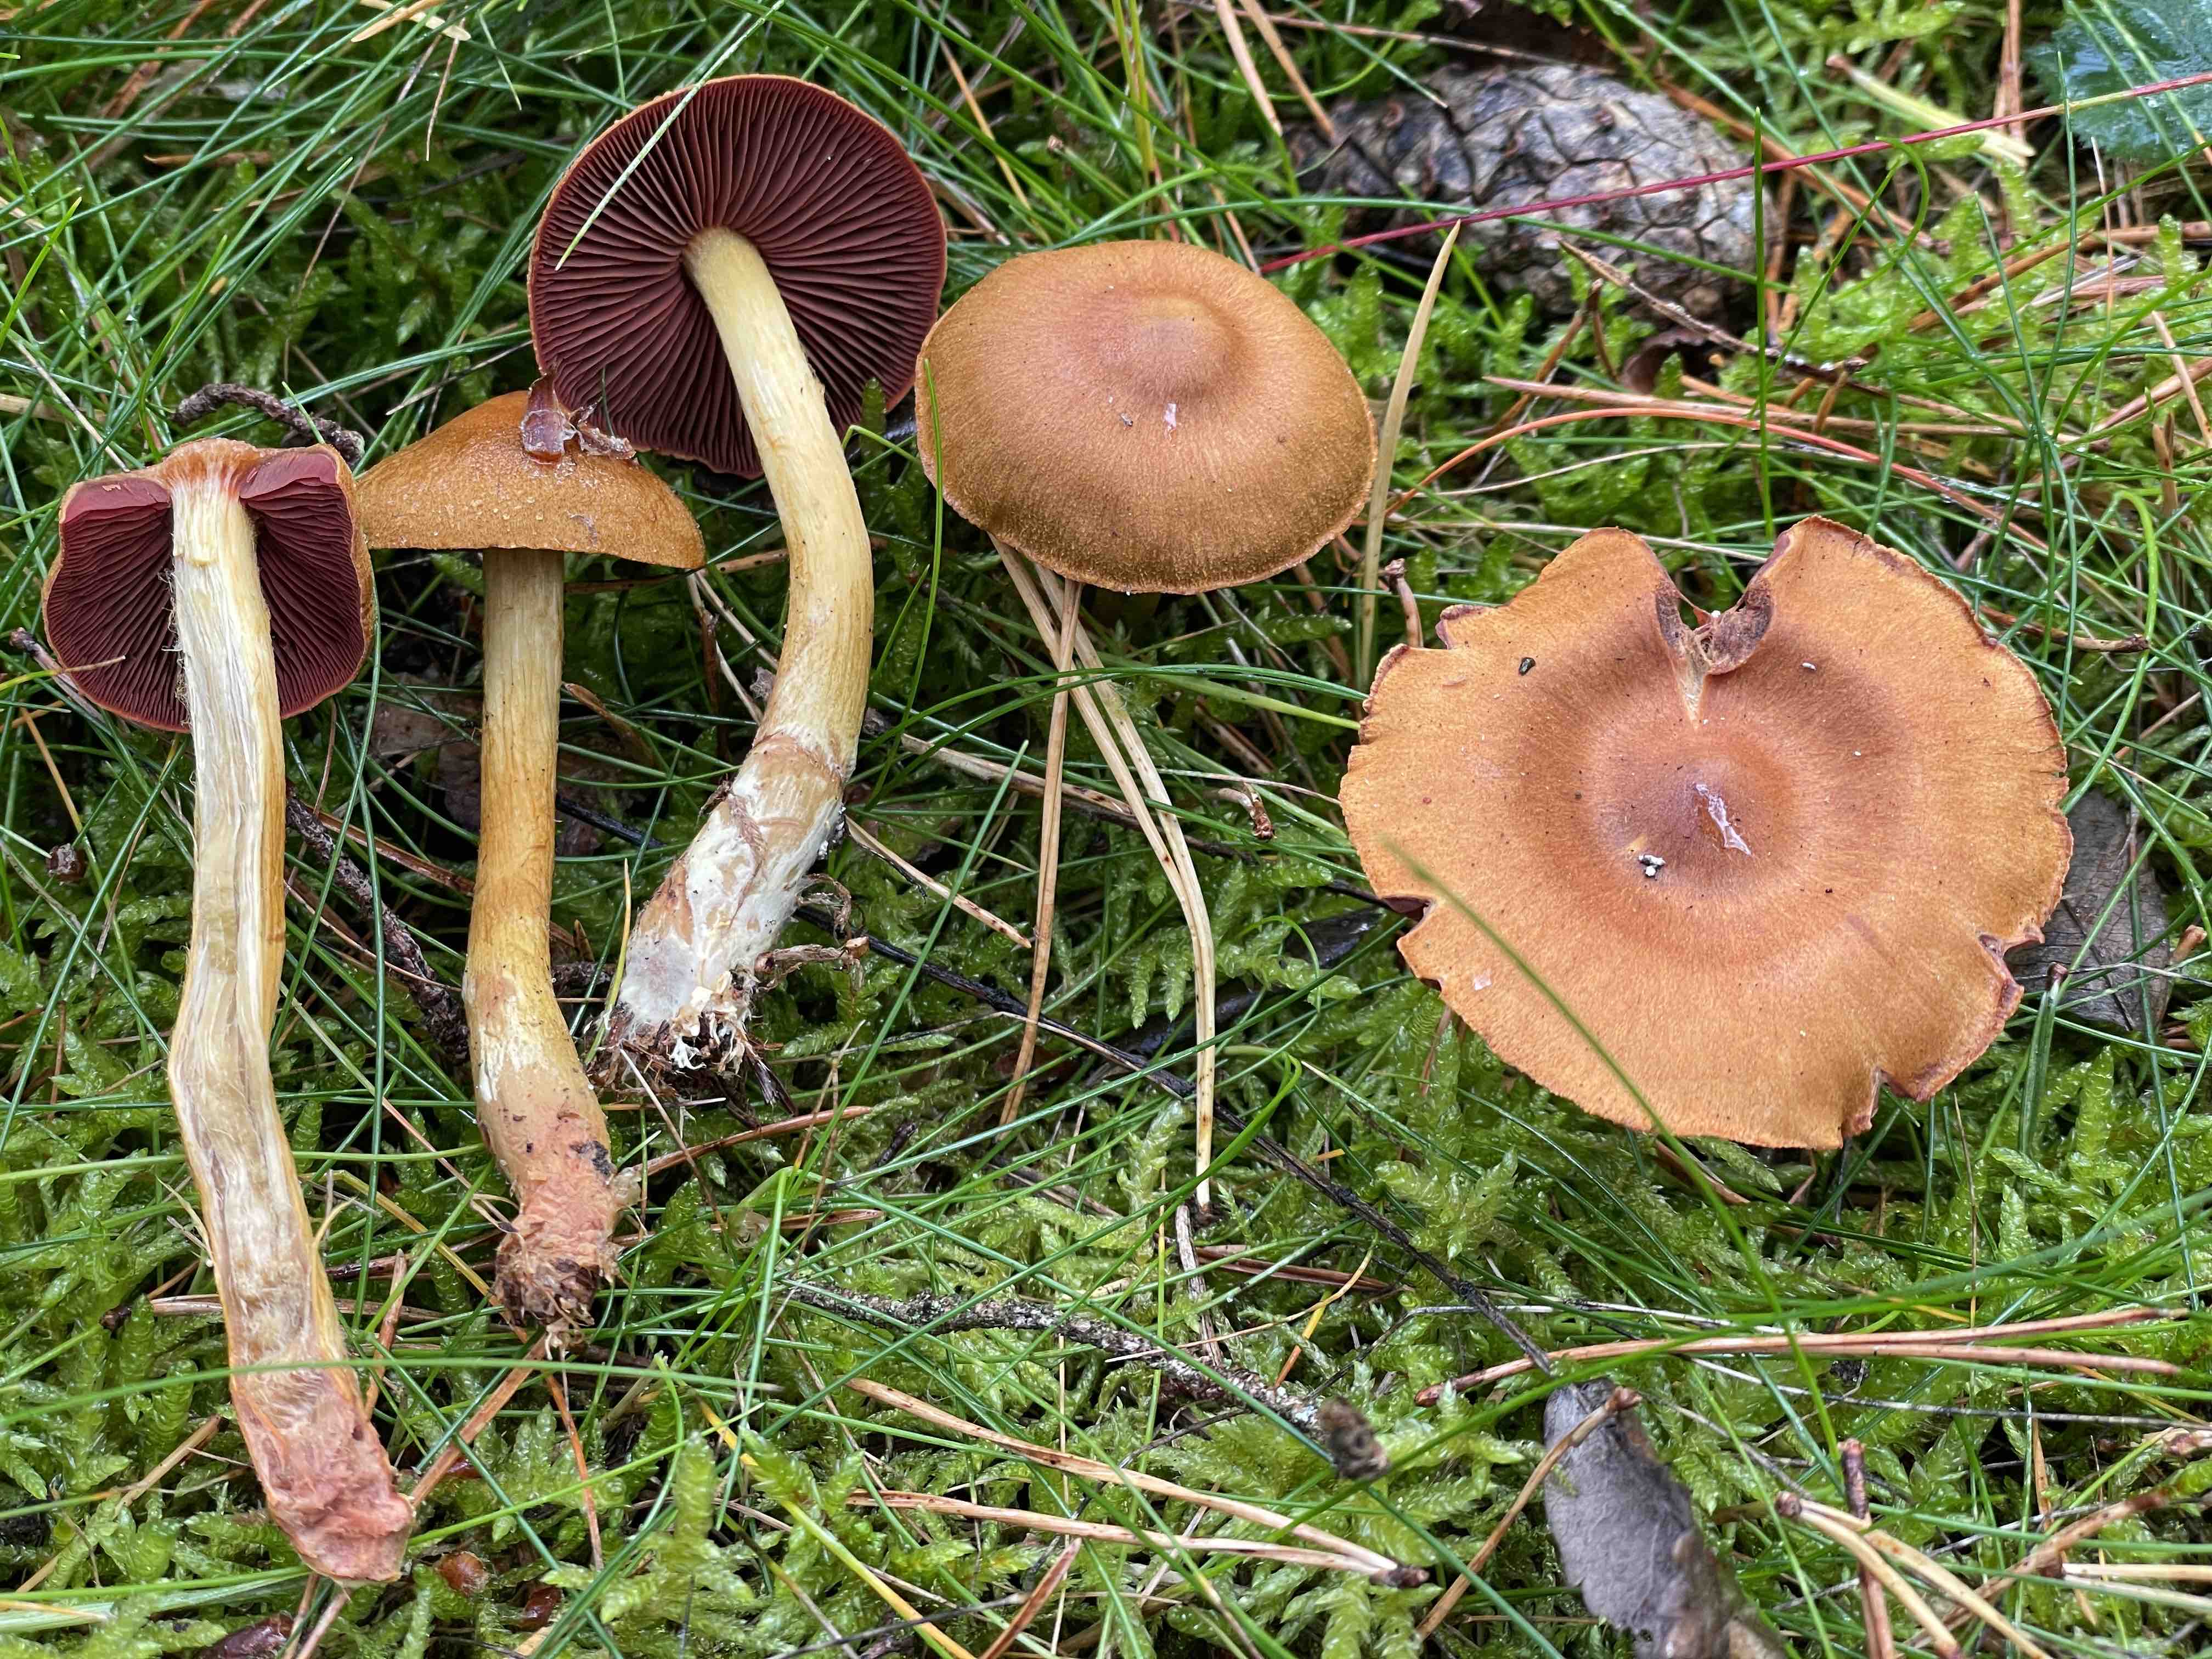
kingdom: Fungi
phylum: Basidiomycota
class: Agaricomycetes
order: Agaricales
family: Cortinariaceae
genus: Cortinarius
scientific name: Cortinarius ominosus
